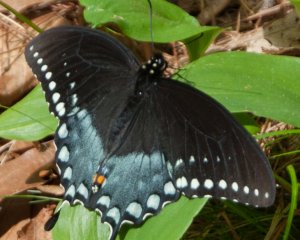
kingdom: Animalia
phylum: Arthropoda
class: Insecta
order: Lepidoptera
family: Papilionidae
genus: Pterourus
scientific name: Pterourus troilus
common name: Spicebush Swallowtail
